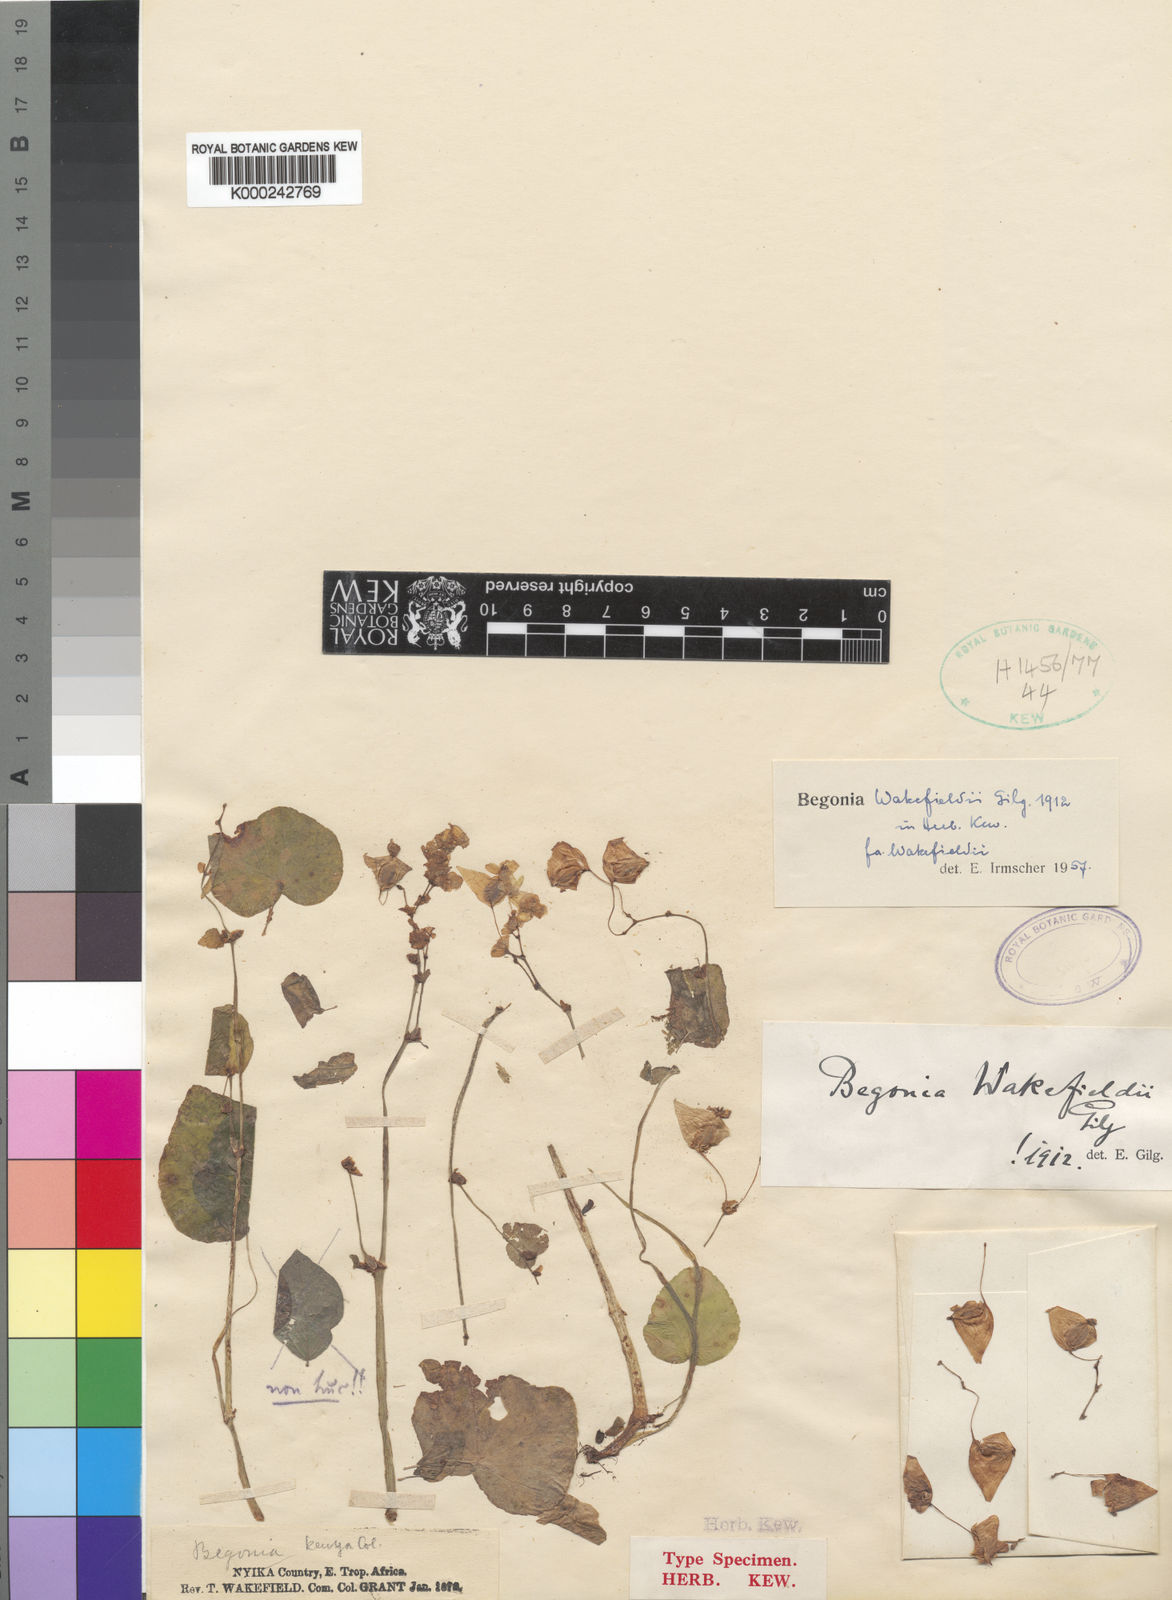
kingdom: Plantae
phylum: Tracheophyta
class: Magnoliopsida
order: Cucurbitales
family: Begoniaceae
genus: Begonia
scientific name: Begonia wakefieldii
